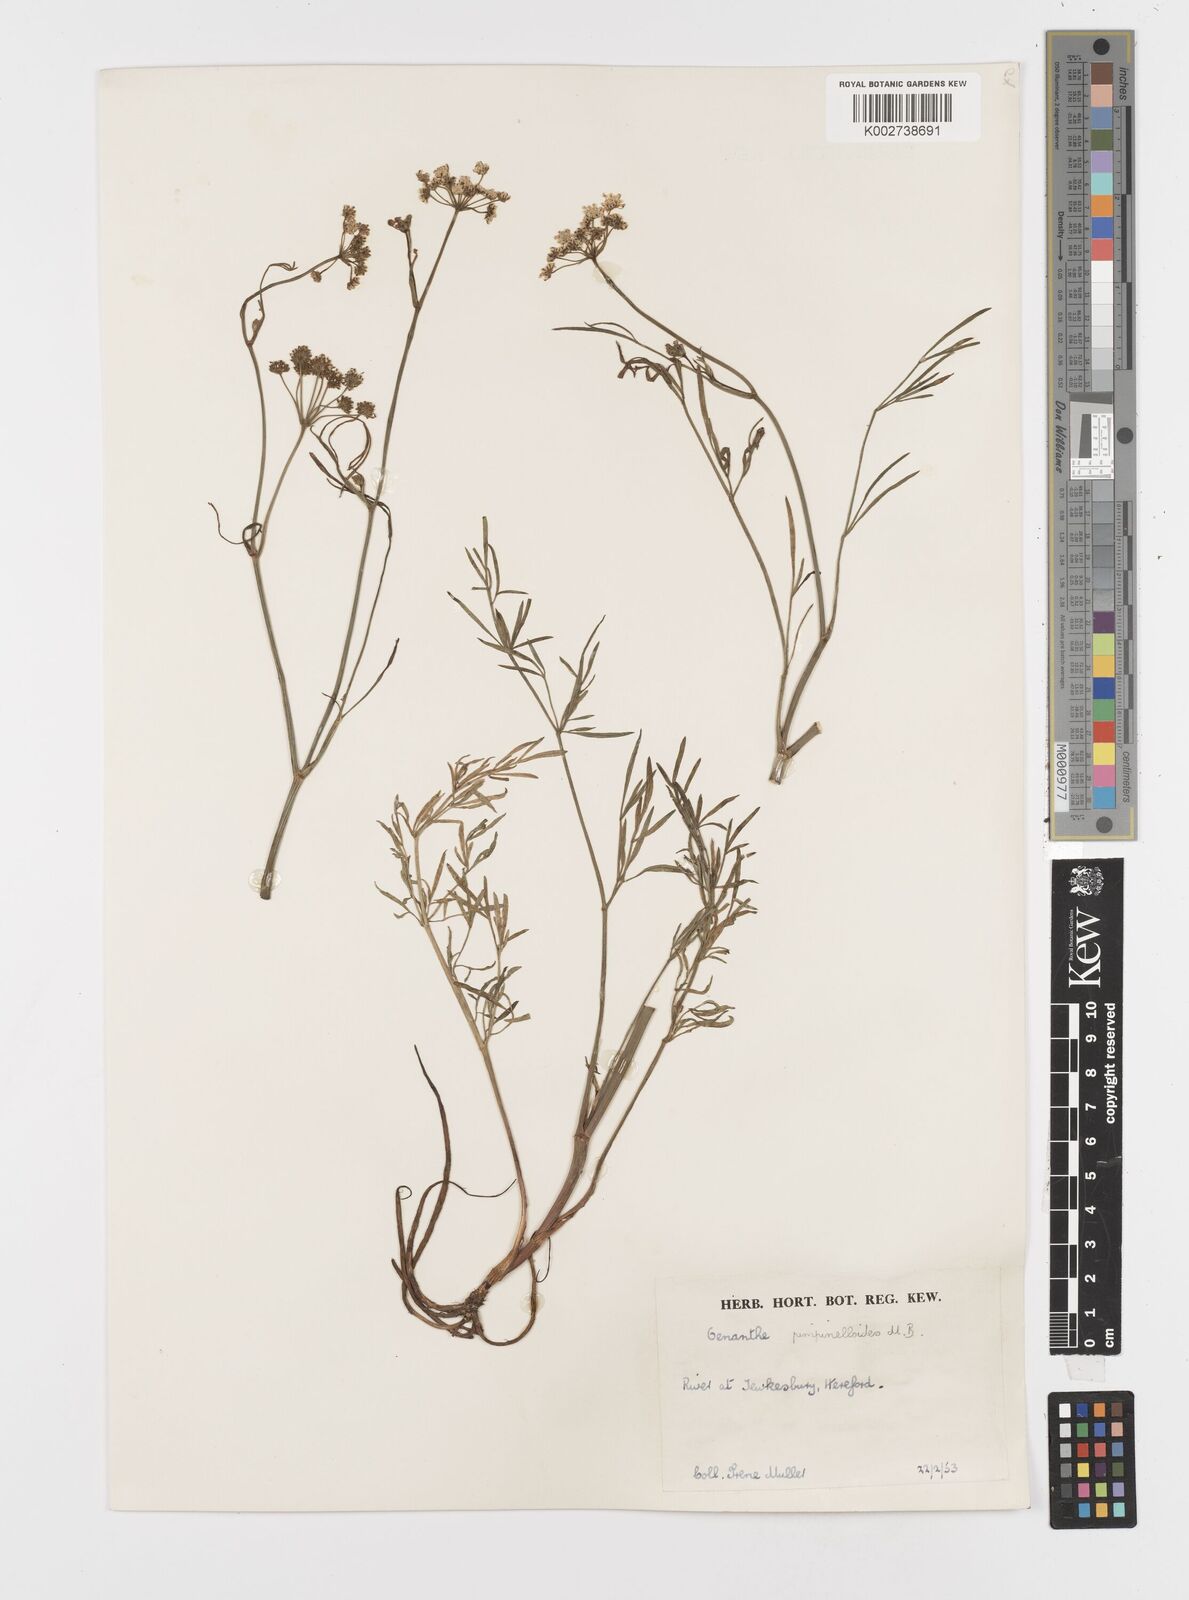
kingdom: Plantae
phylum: Tracheophyta
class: Magnoliopsida
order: Apiales
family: Apiaceae
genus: Oenanthe
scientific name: Oenanthe pimpinelloides
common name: Corky-fruited water-dropwort
